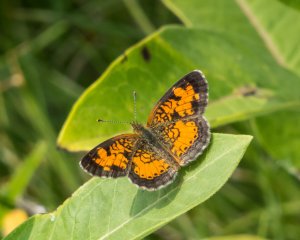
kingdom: Animalia
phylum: Arthropoda
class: Insecta
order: Lepidoptera
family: Nymphalidae
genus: Phyciodes
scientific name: Phyciodes tharos
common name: Northern Crescent
